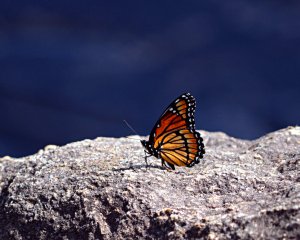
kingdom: Animalia
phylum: Arthropoda
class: Insecta
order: Lepidoptera
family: Nymphalidae
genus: Limenitis
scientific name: Limenitis archippus
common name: Viceroy
